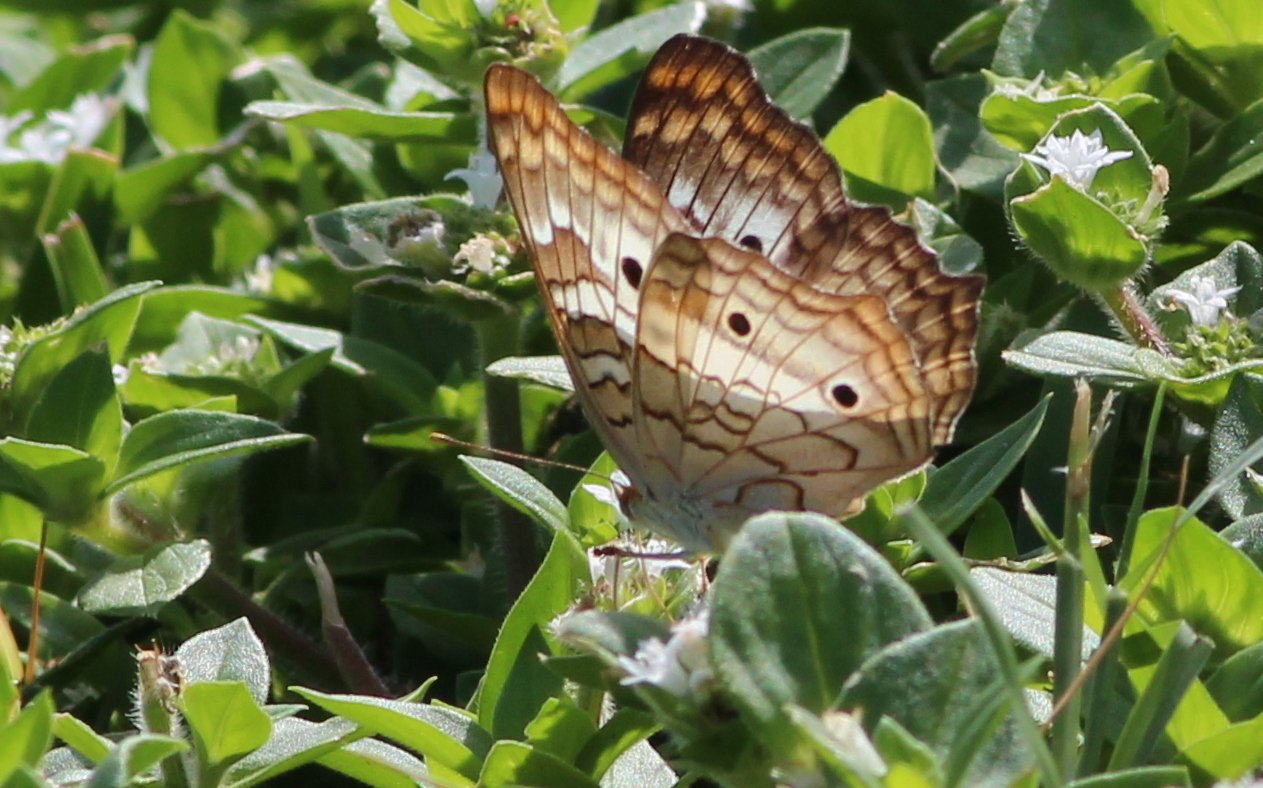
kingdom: Animalia
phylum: Arthropoda
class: Insecta
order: Lepidoptera
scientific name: Lepidoptera
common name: Butterflies
